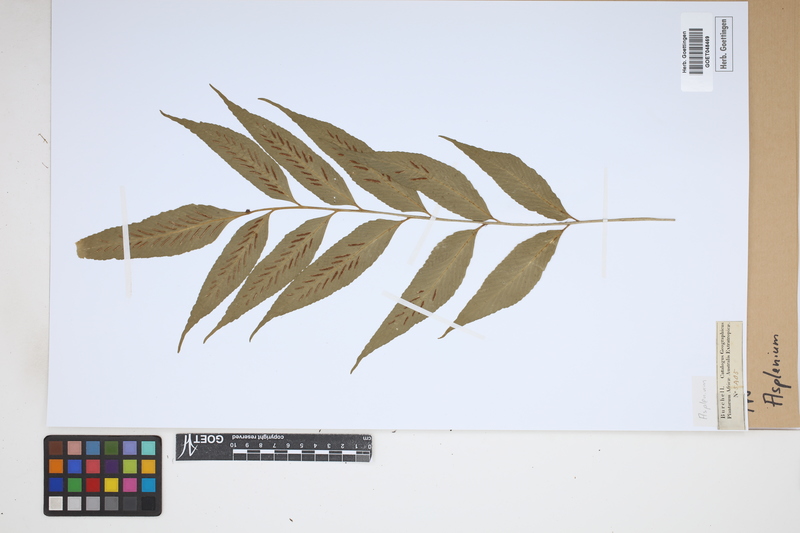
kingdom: Plantae
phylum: Tracheophyta
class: Polypodiopsida
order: Polypodiales
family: Aspleniaceae
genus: Asplenium
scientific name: Asplenium
